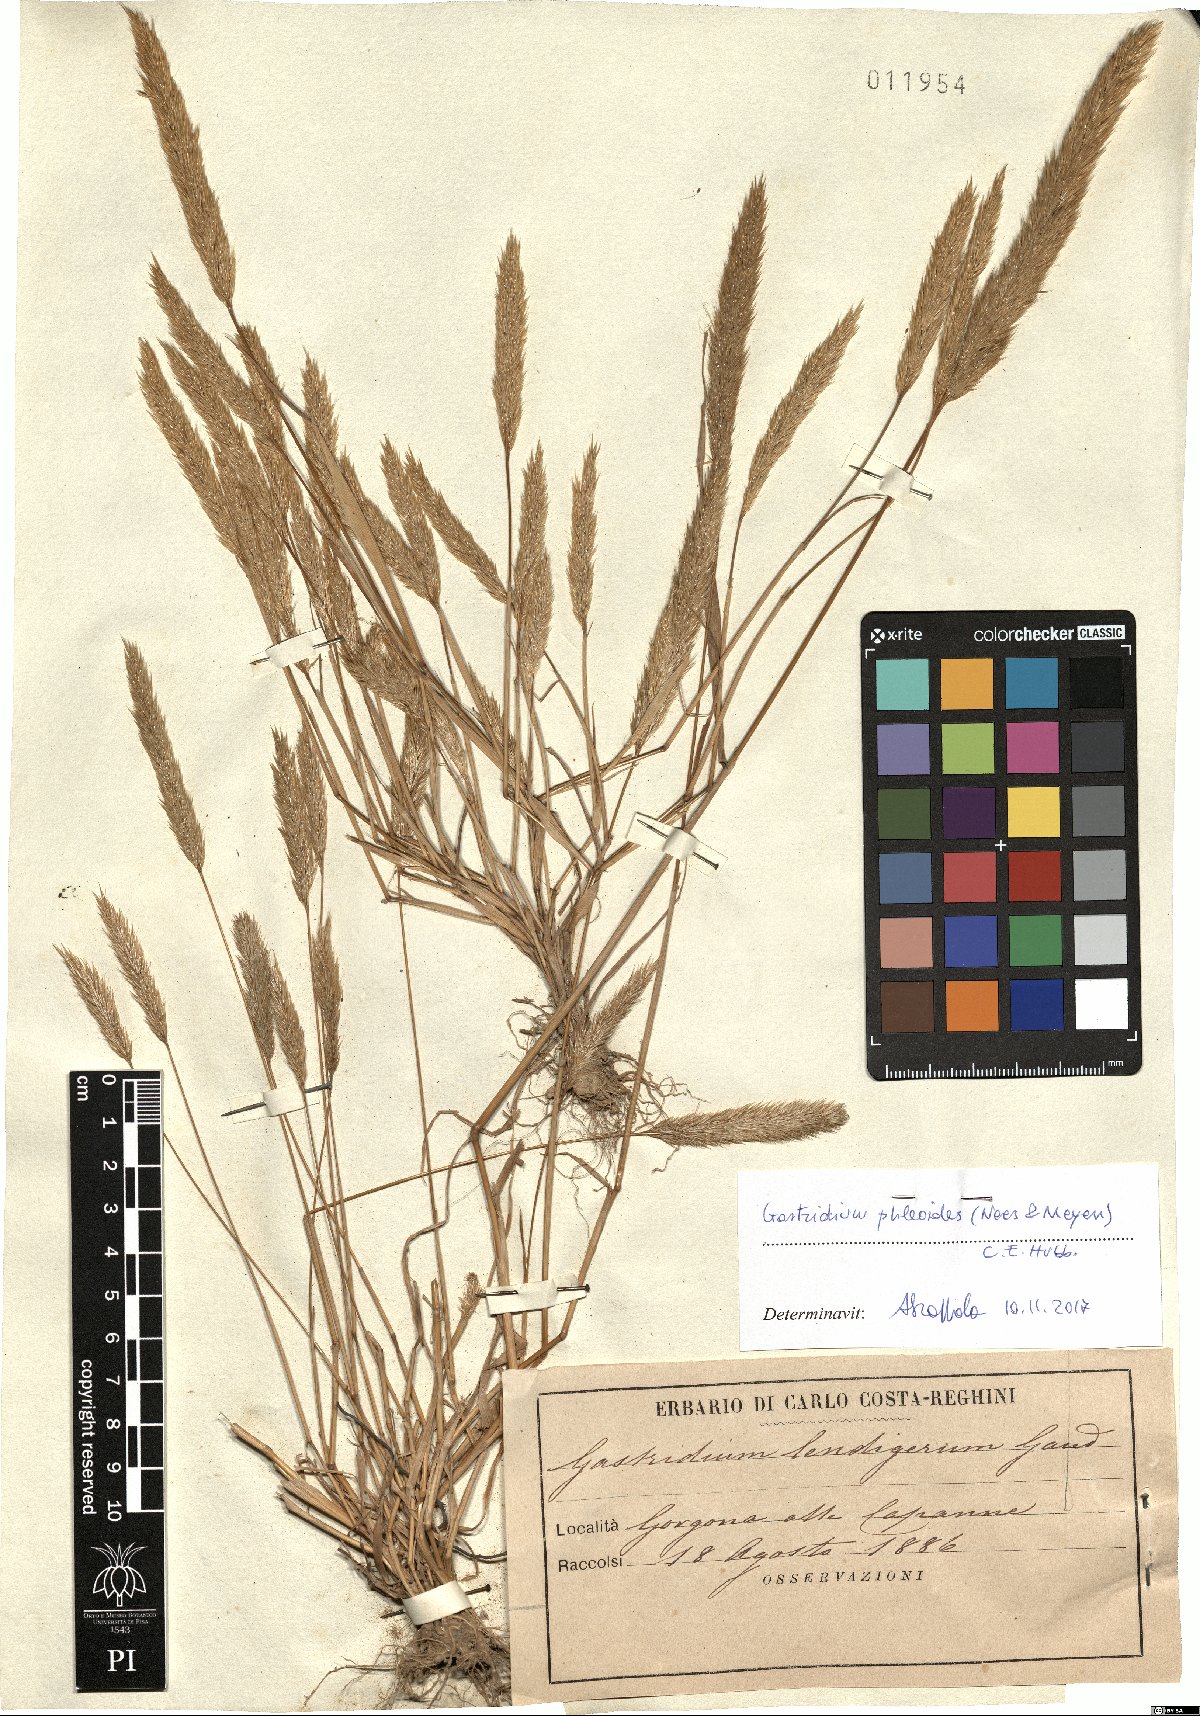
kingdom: Plantae
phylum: Tracheophyta
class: Liliopsida
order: Poales
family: Poaceae
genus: Gastridium
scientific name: Gastridium phleoides
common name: Nit grass
